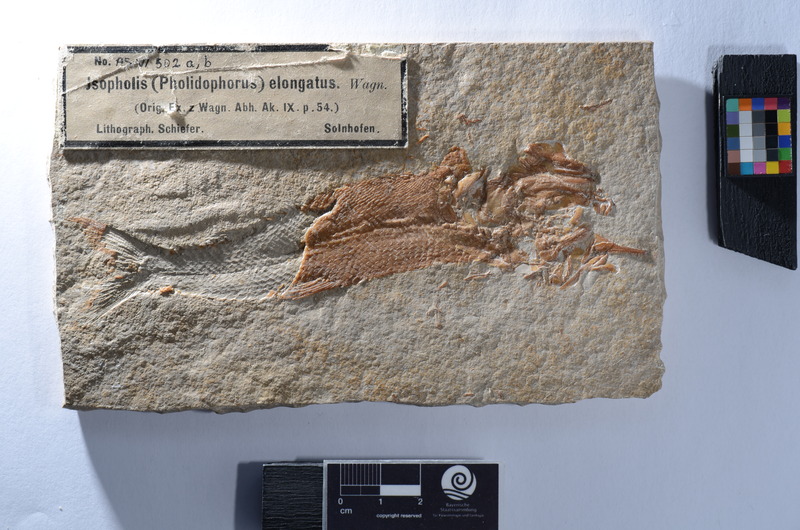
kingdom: Animalia
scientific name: Animalia
